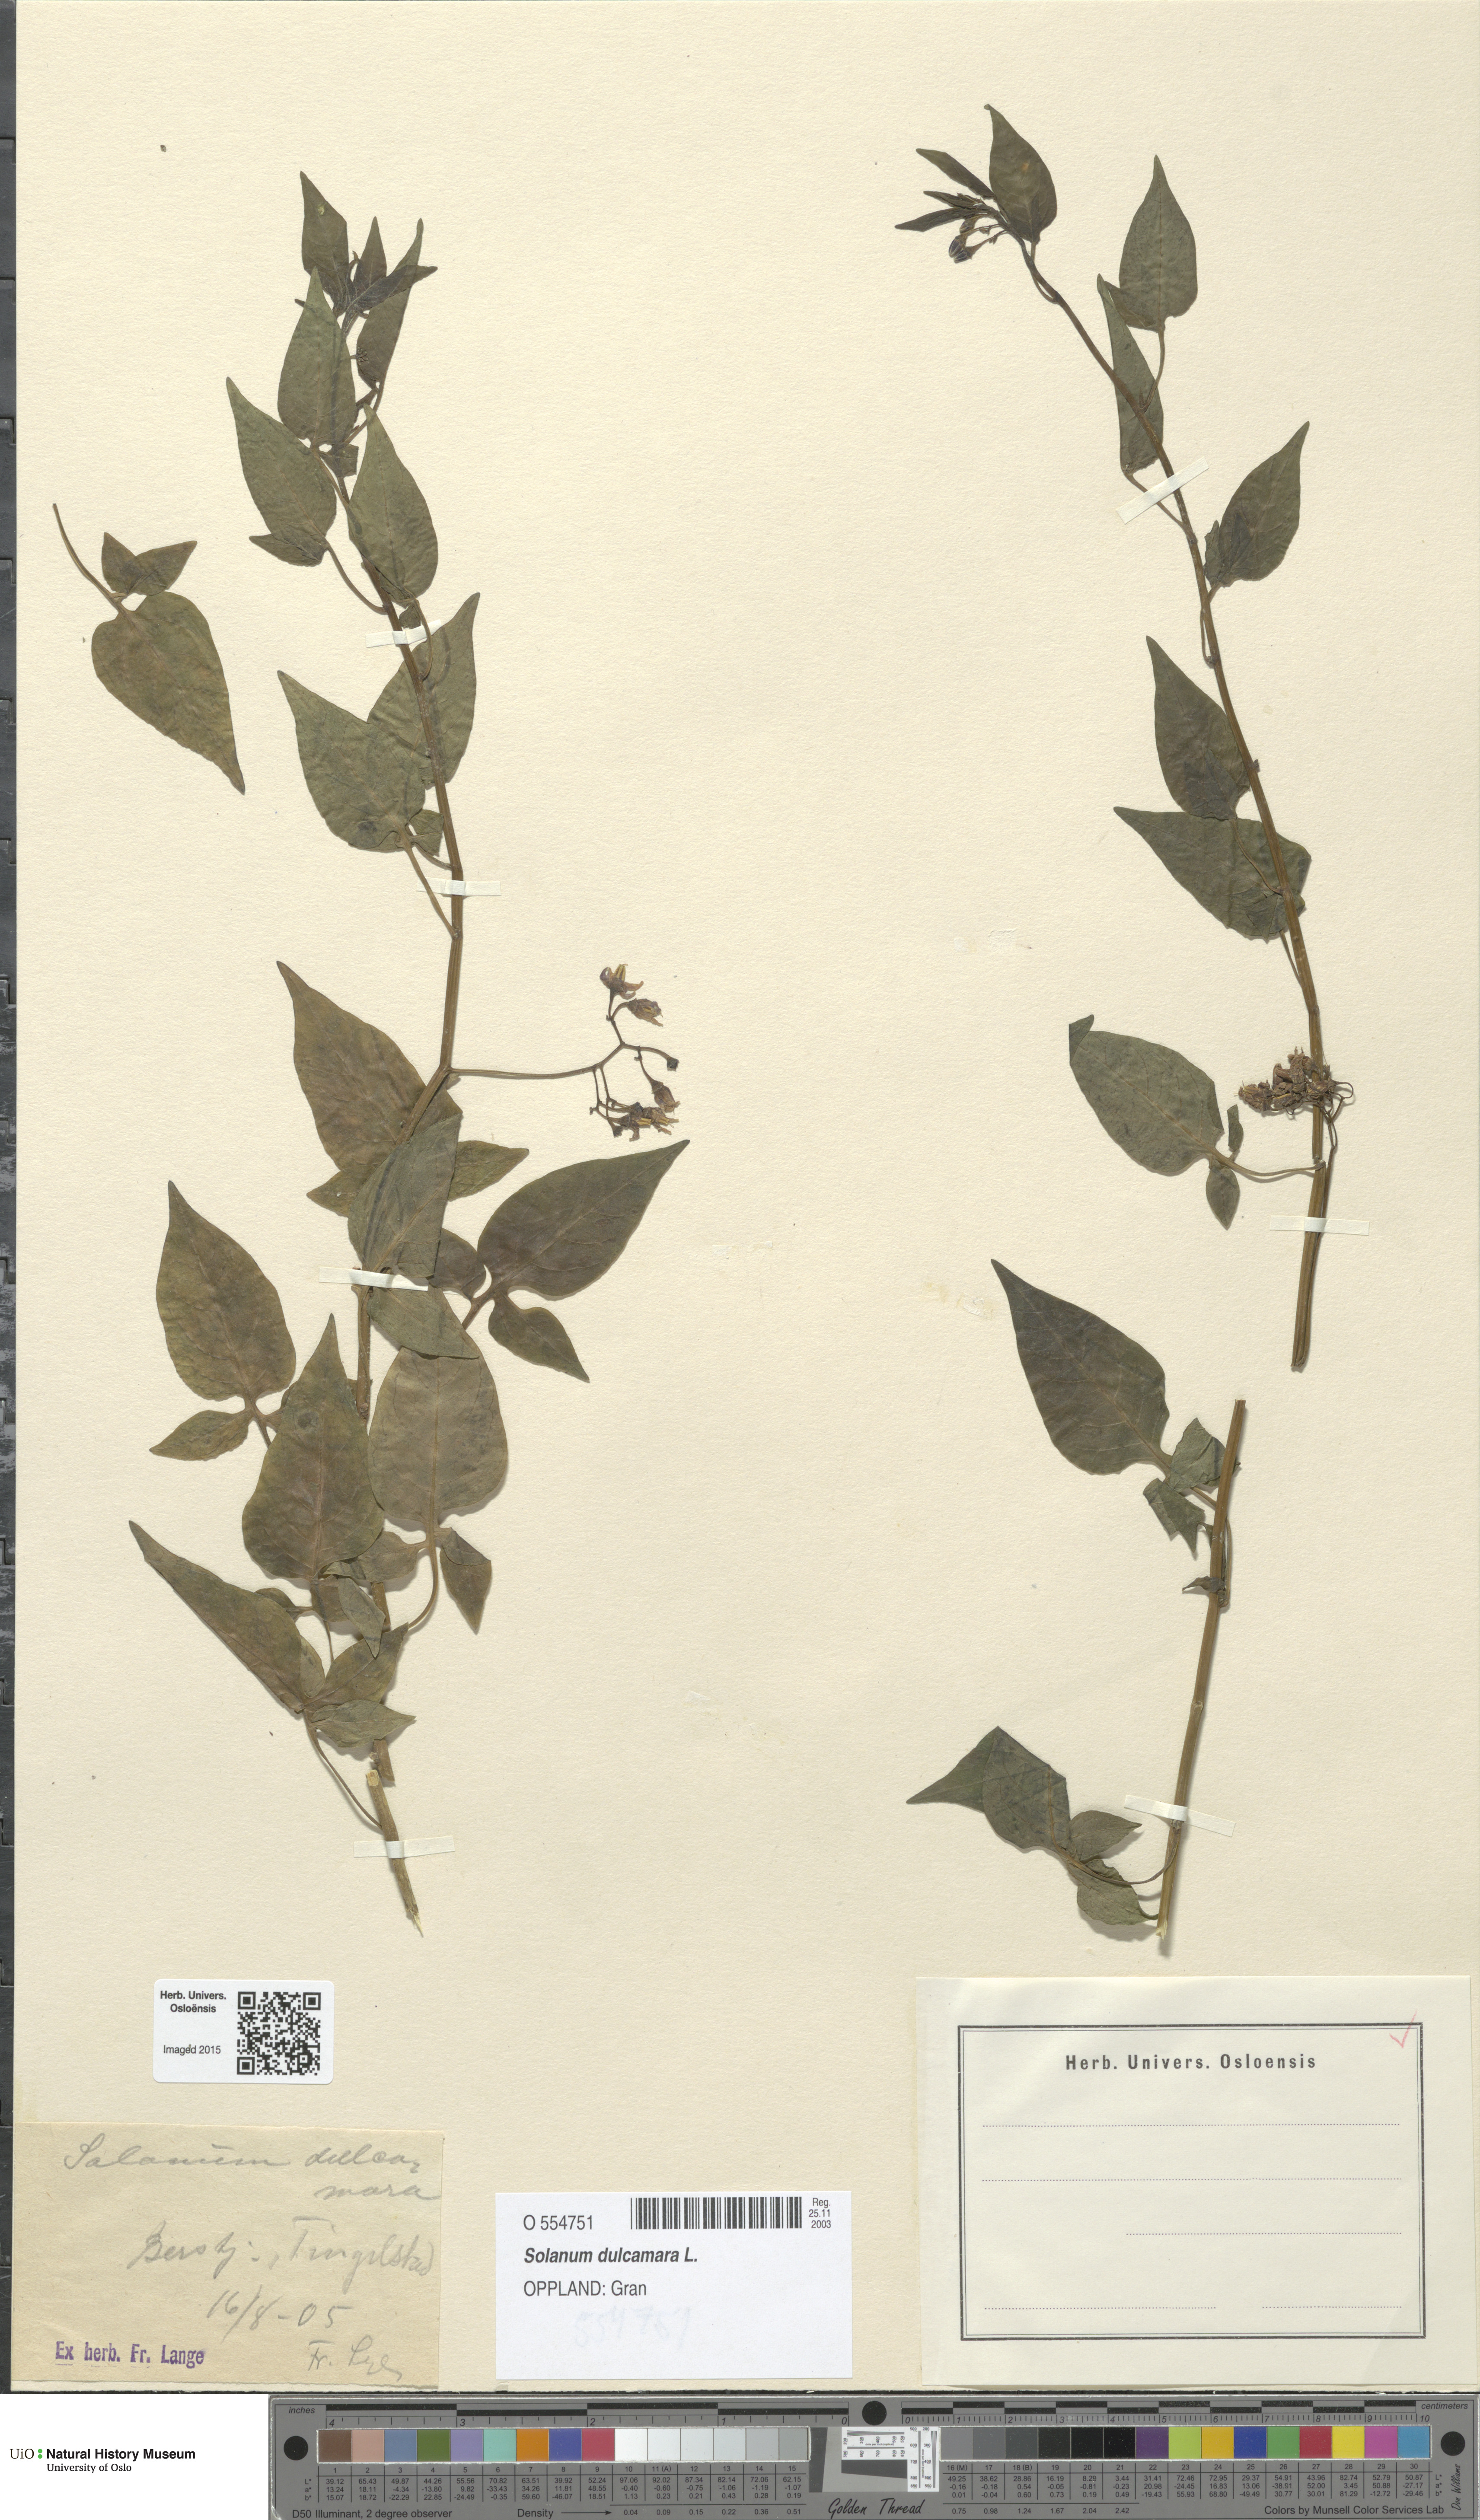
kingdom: Plantae
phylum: Tracheophyta
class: Magnoliopsida
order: Solanales
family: Solanaceae
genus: Solanum
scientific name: Solanum dulcamara
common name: Climbing nightshade
